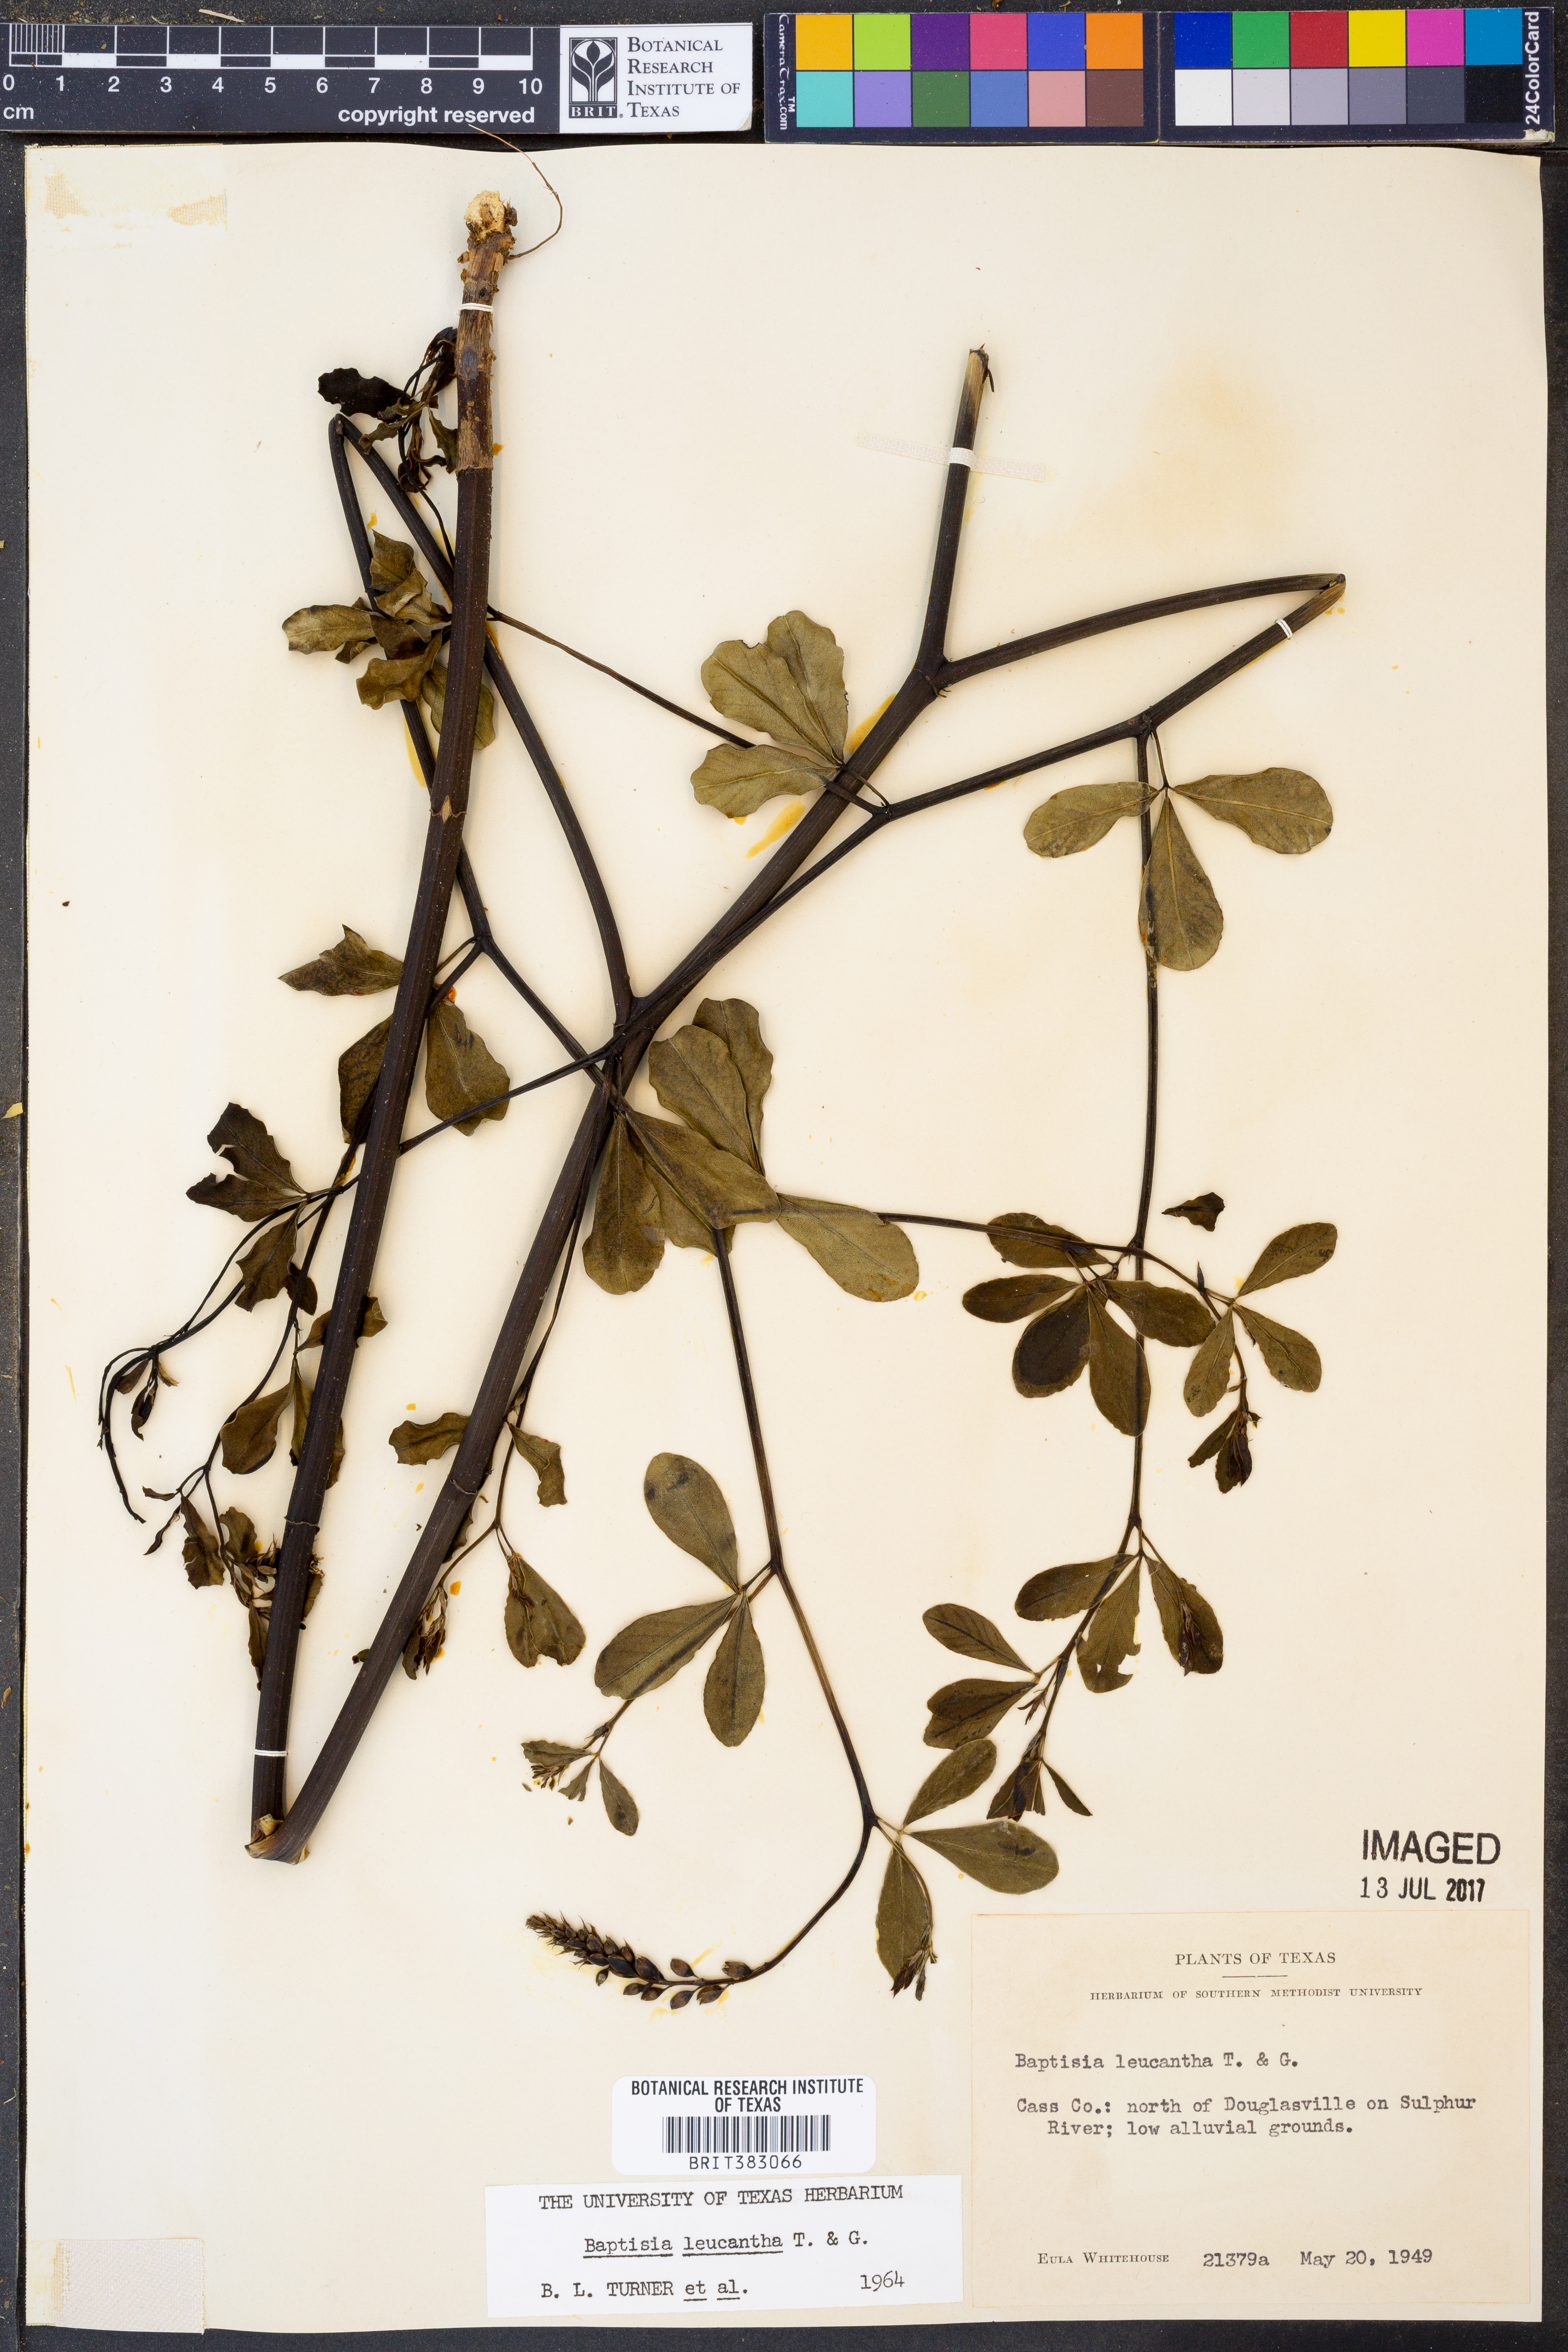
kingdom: Plantae
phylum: Tracheophyta
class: Magnoliopsida
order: Fabales
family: Fabaceae
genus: Baptisia
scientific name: Baptisia alba
